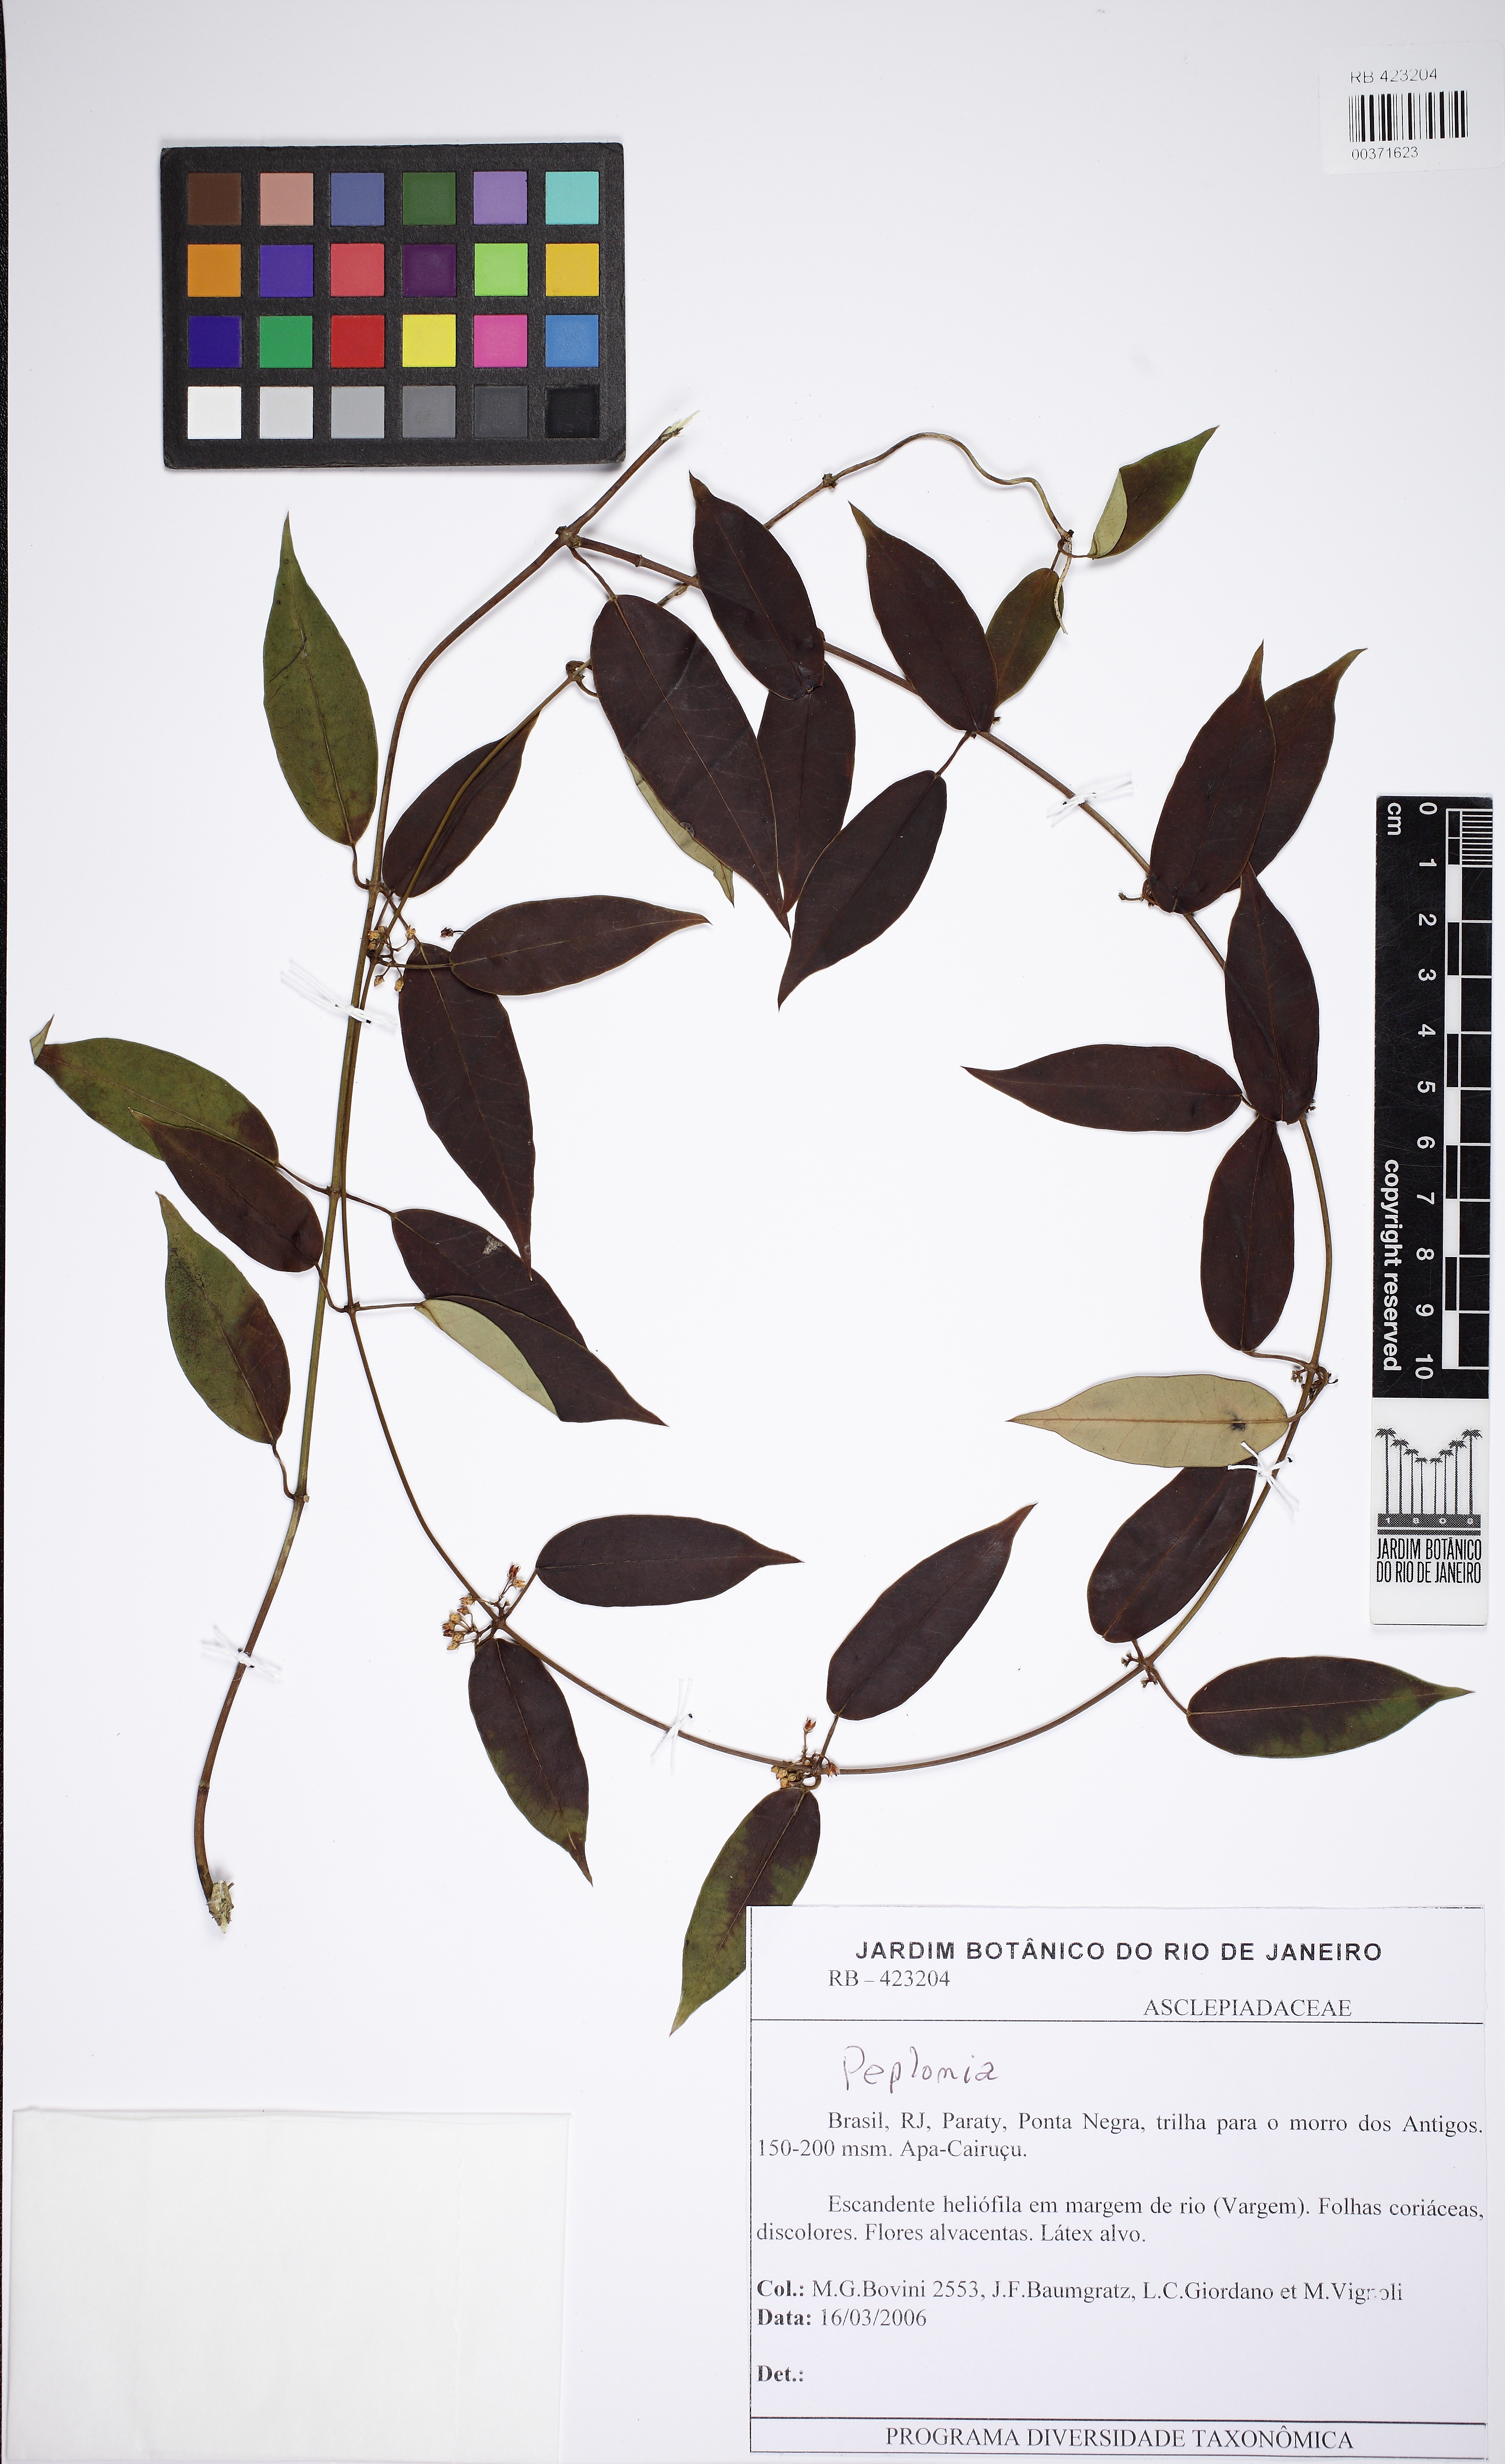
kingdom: Plantae
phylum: Tracheophyta
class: Magnoliopsida
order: Gentianales
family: Apocynaceae
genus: Peplonia
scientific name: Peplonia axillaris
